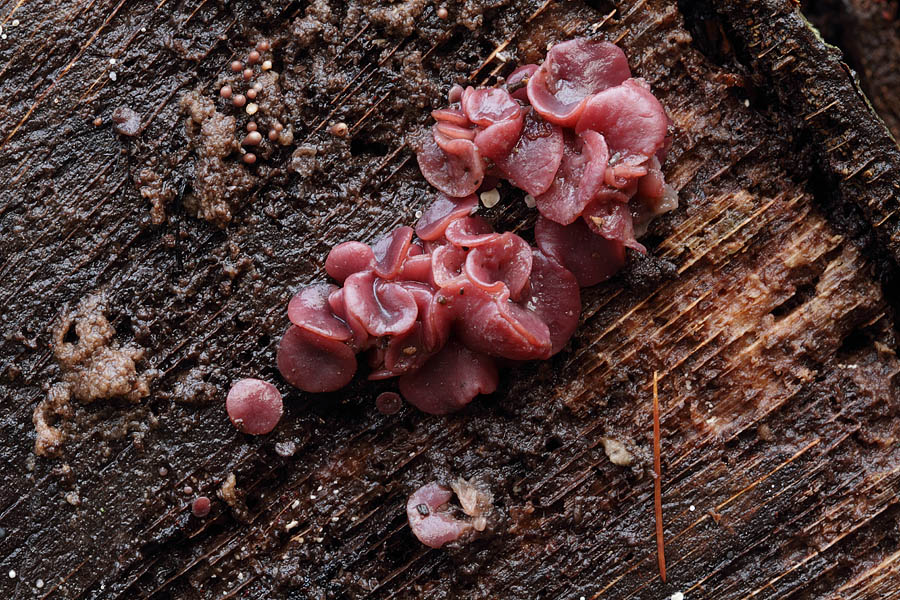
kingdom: Fungi
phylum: Ascomycota
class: Leotiomycetes
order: Helotiales
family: Gelatinodiscaceae
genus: Ascocoryne
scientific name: Ascocoryne cylichnium
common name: stor sejskive
